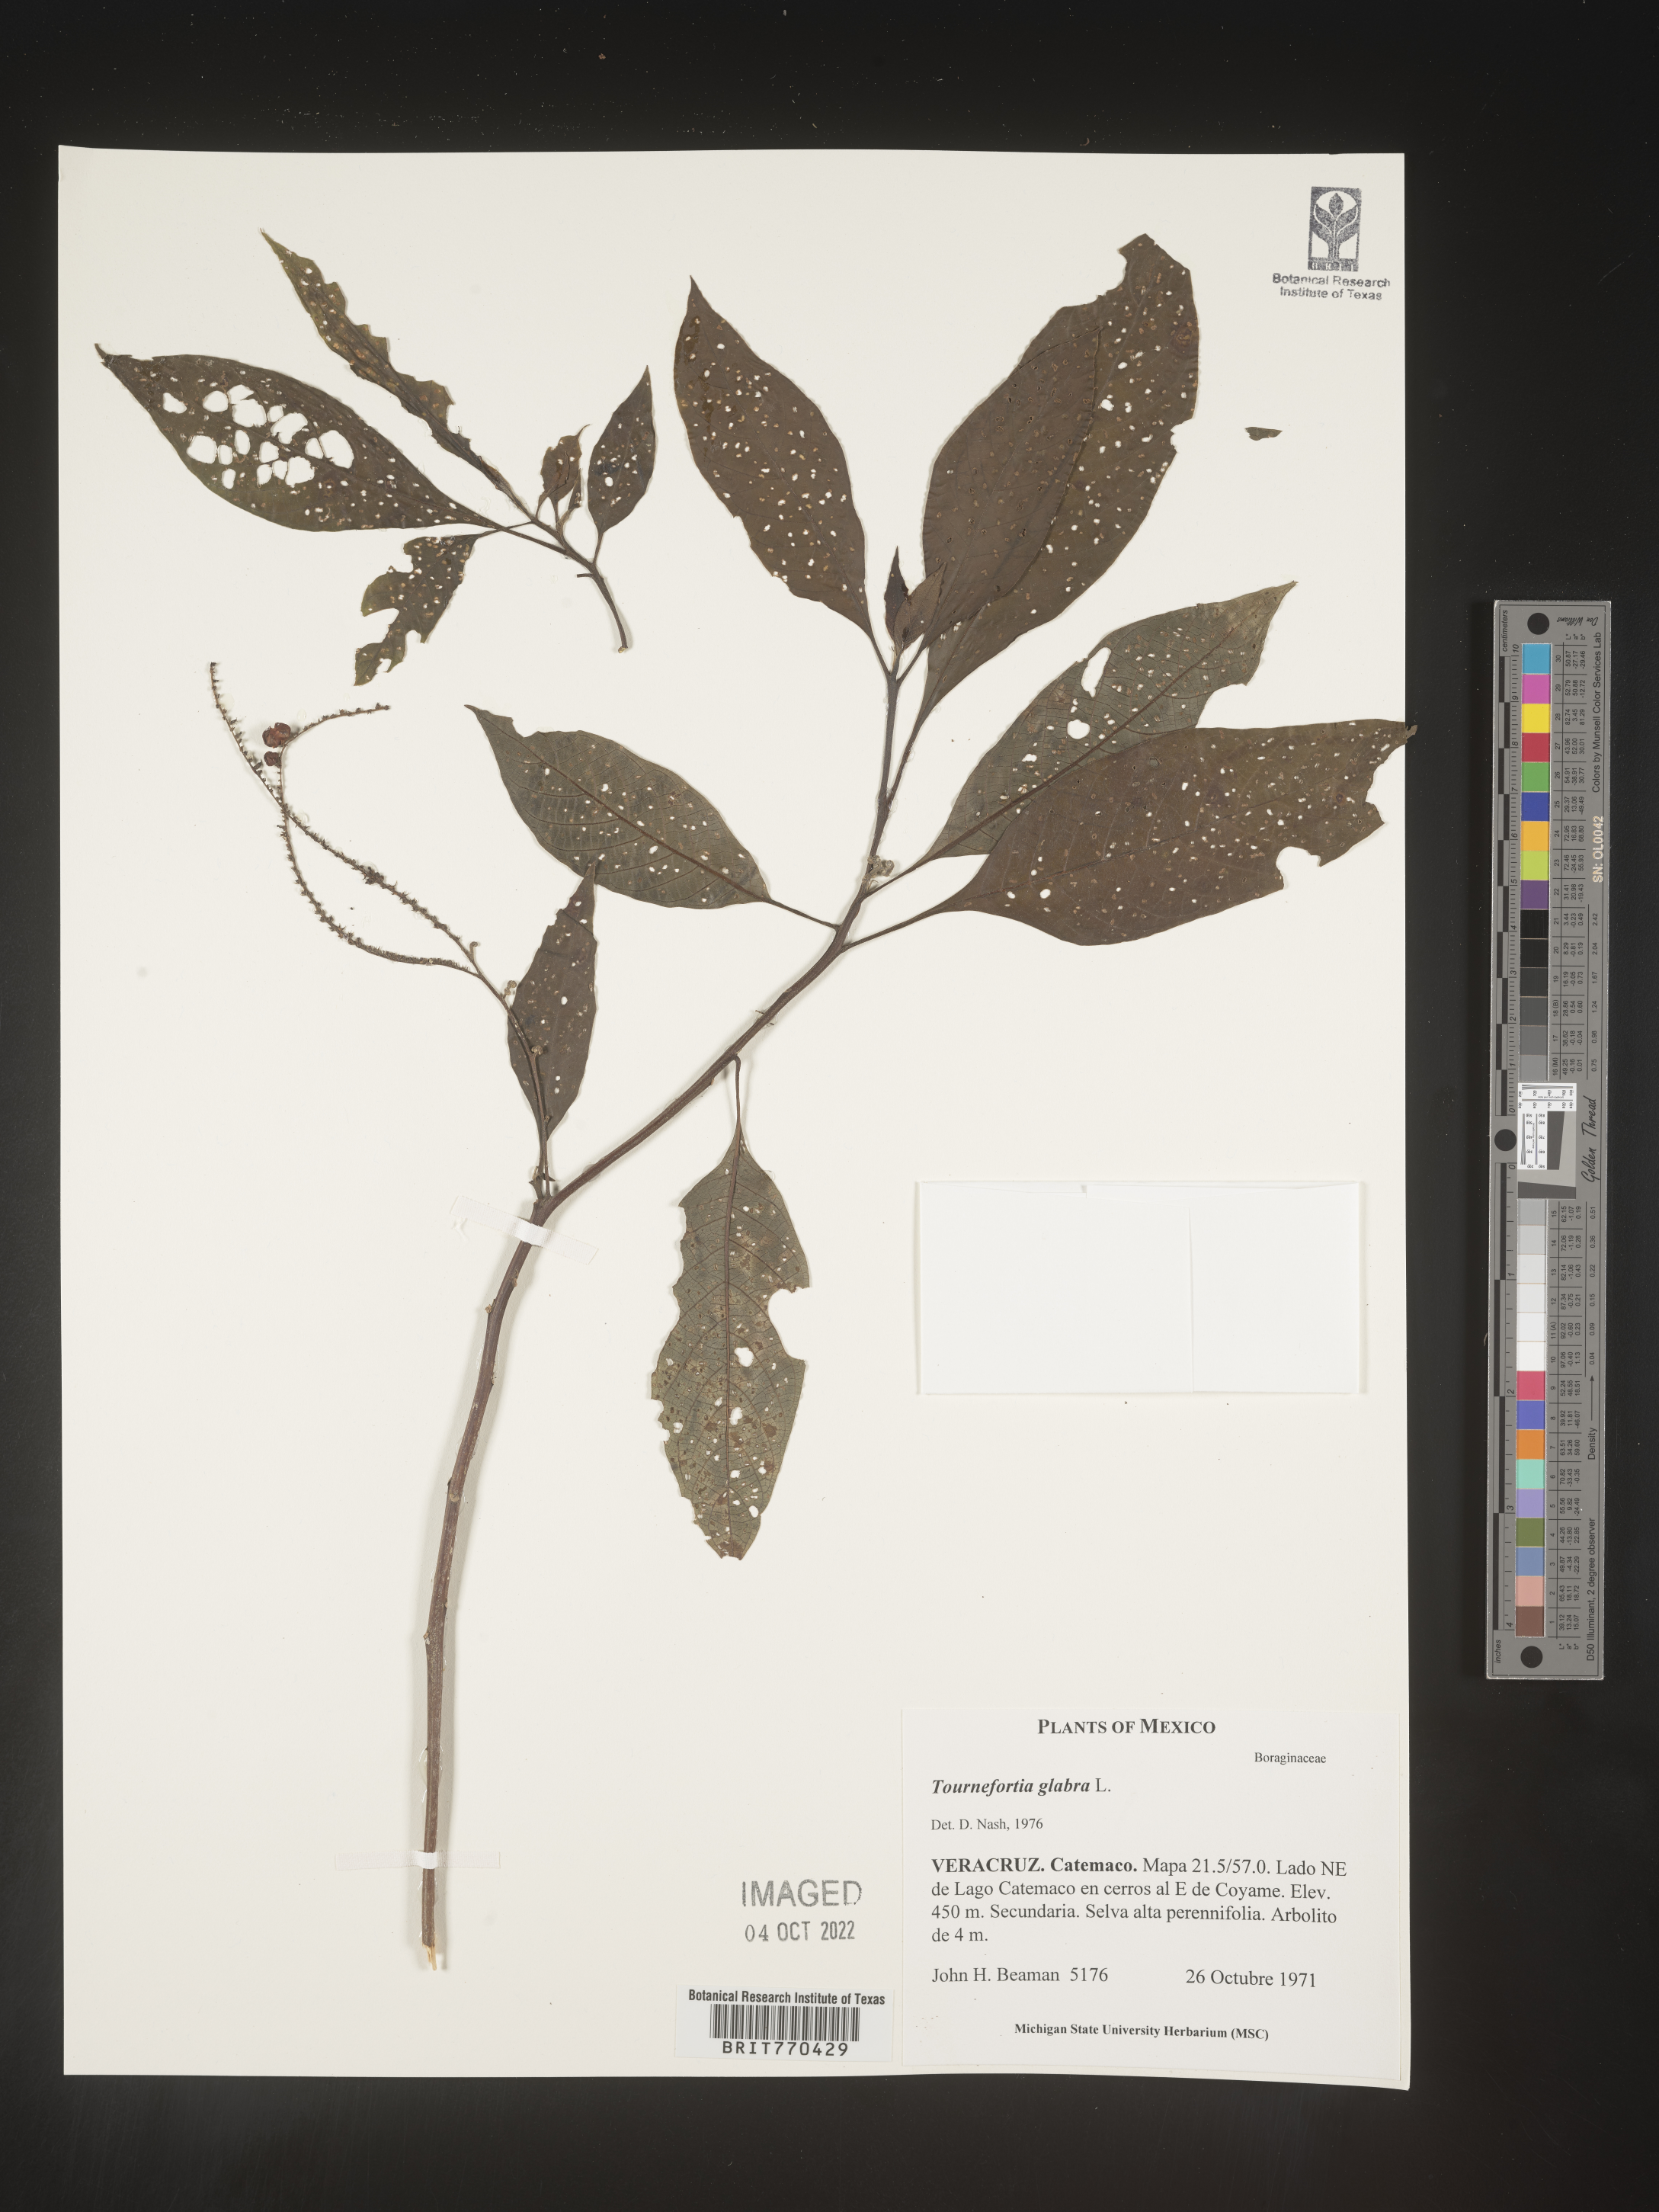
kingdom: Plantae
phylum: Tracheophyta
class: Magnoliopsida
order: Boraginales
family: Heliotropiaceae
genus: Tournefortia
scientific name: Tournefortia
